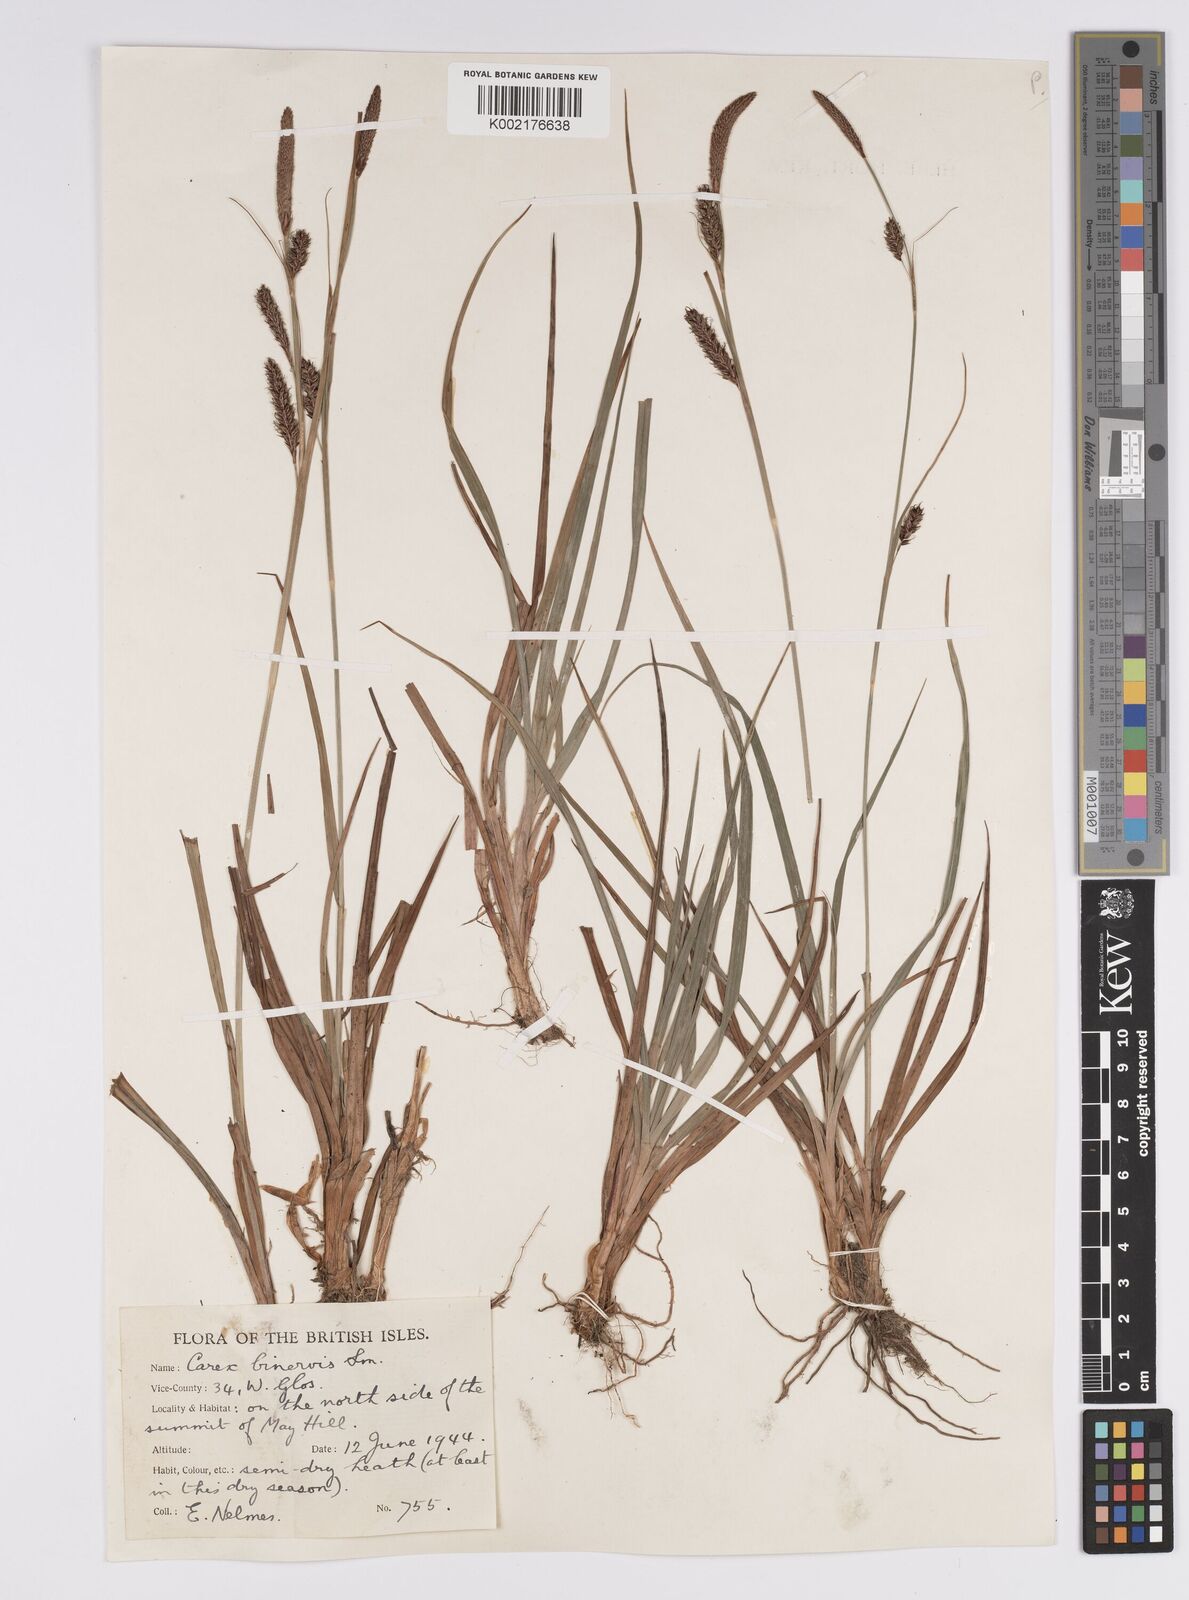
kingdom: Plantae
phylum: Tracheophyta
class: Liliopsida
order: Poales
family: Cyperaceae
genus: Carex
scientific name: Carex binervis
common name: Green-ribbed sedge
